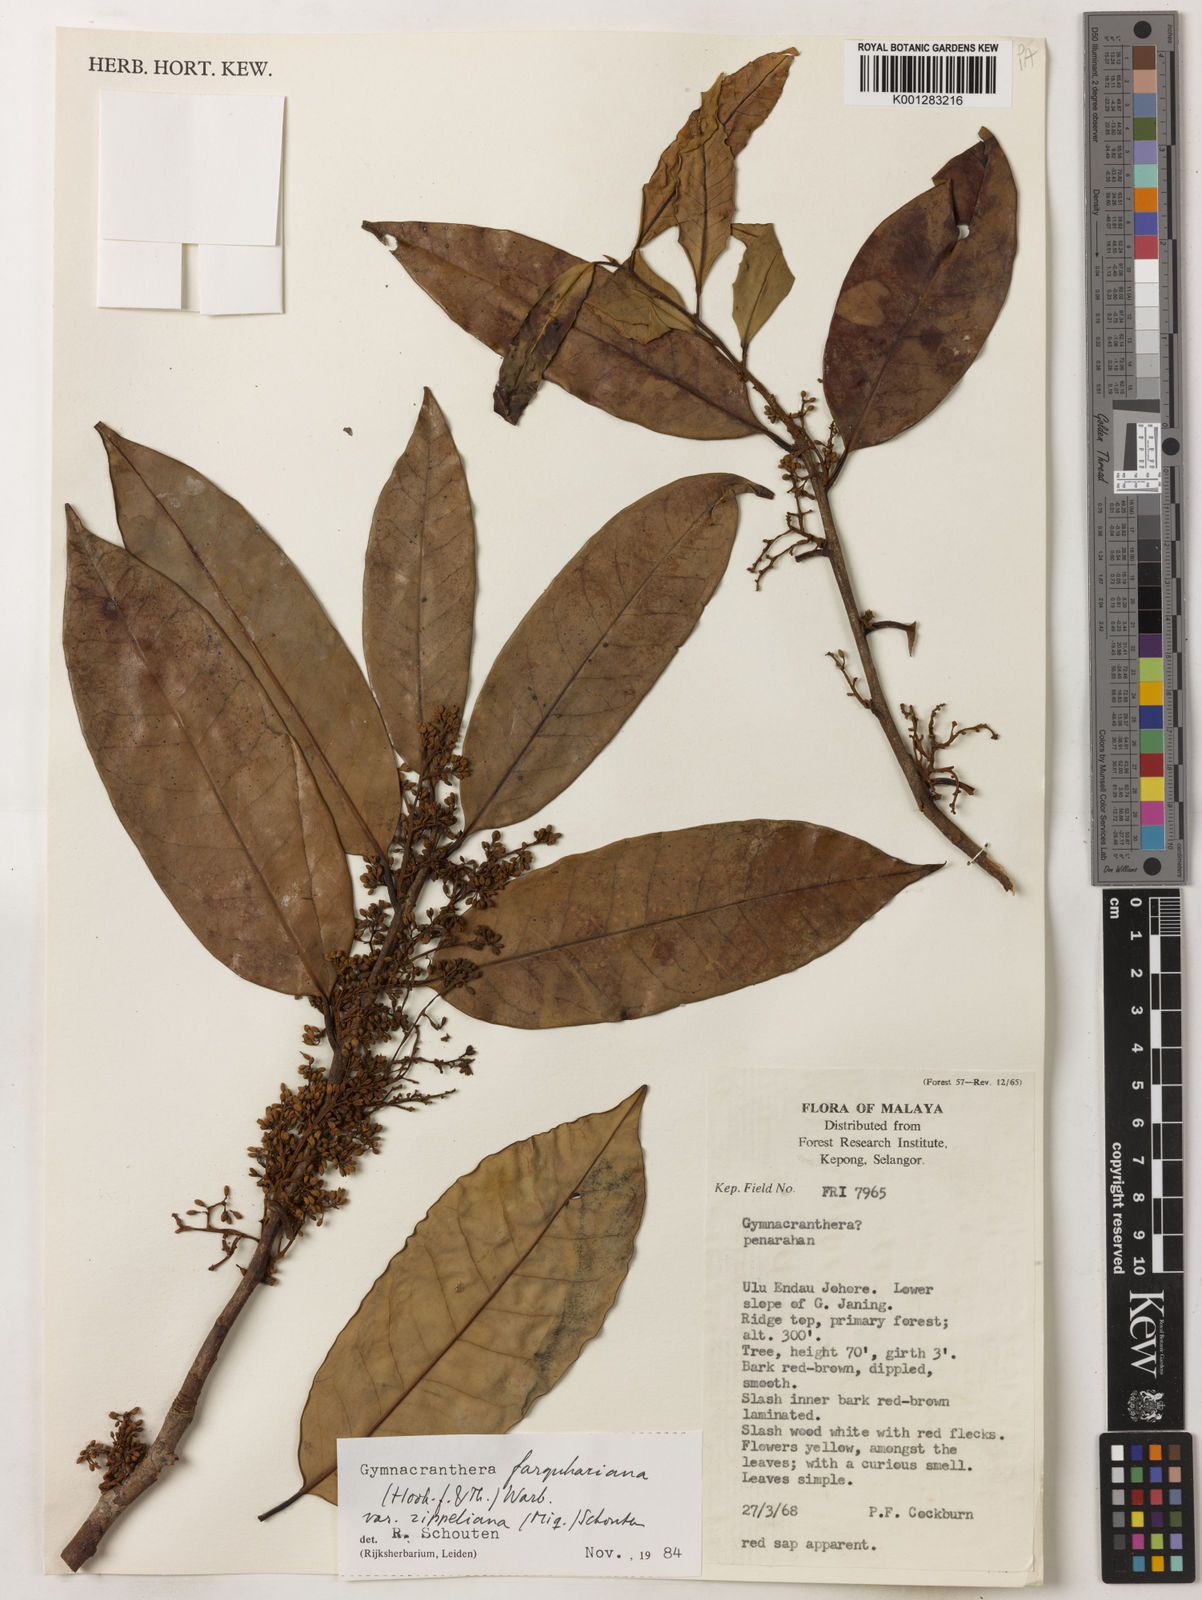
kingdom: Plantae
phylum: Tracheophyta
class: Magnoliopsida
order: Magnoliales
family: Myristicaceae
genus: Gymnacranthera
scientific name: Gymnacranthera farquhariana
